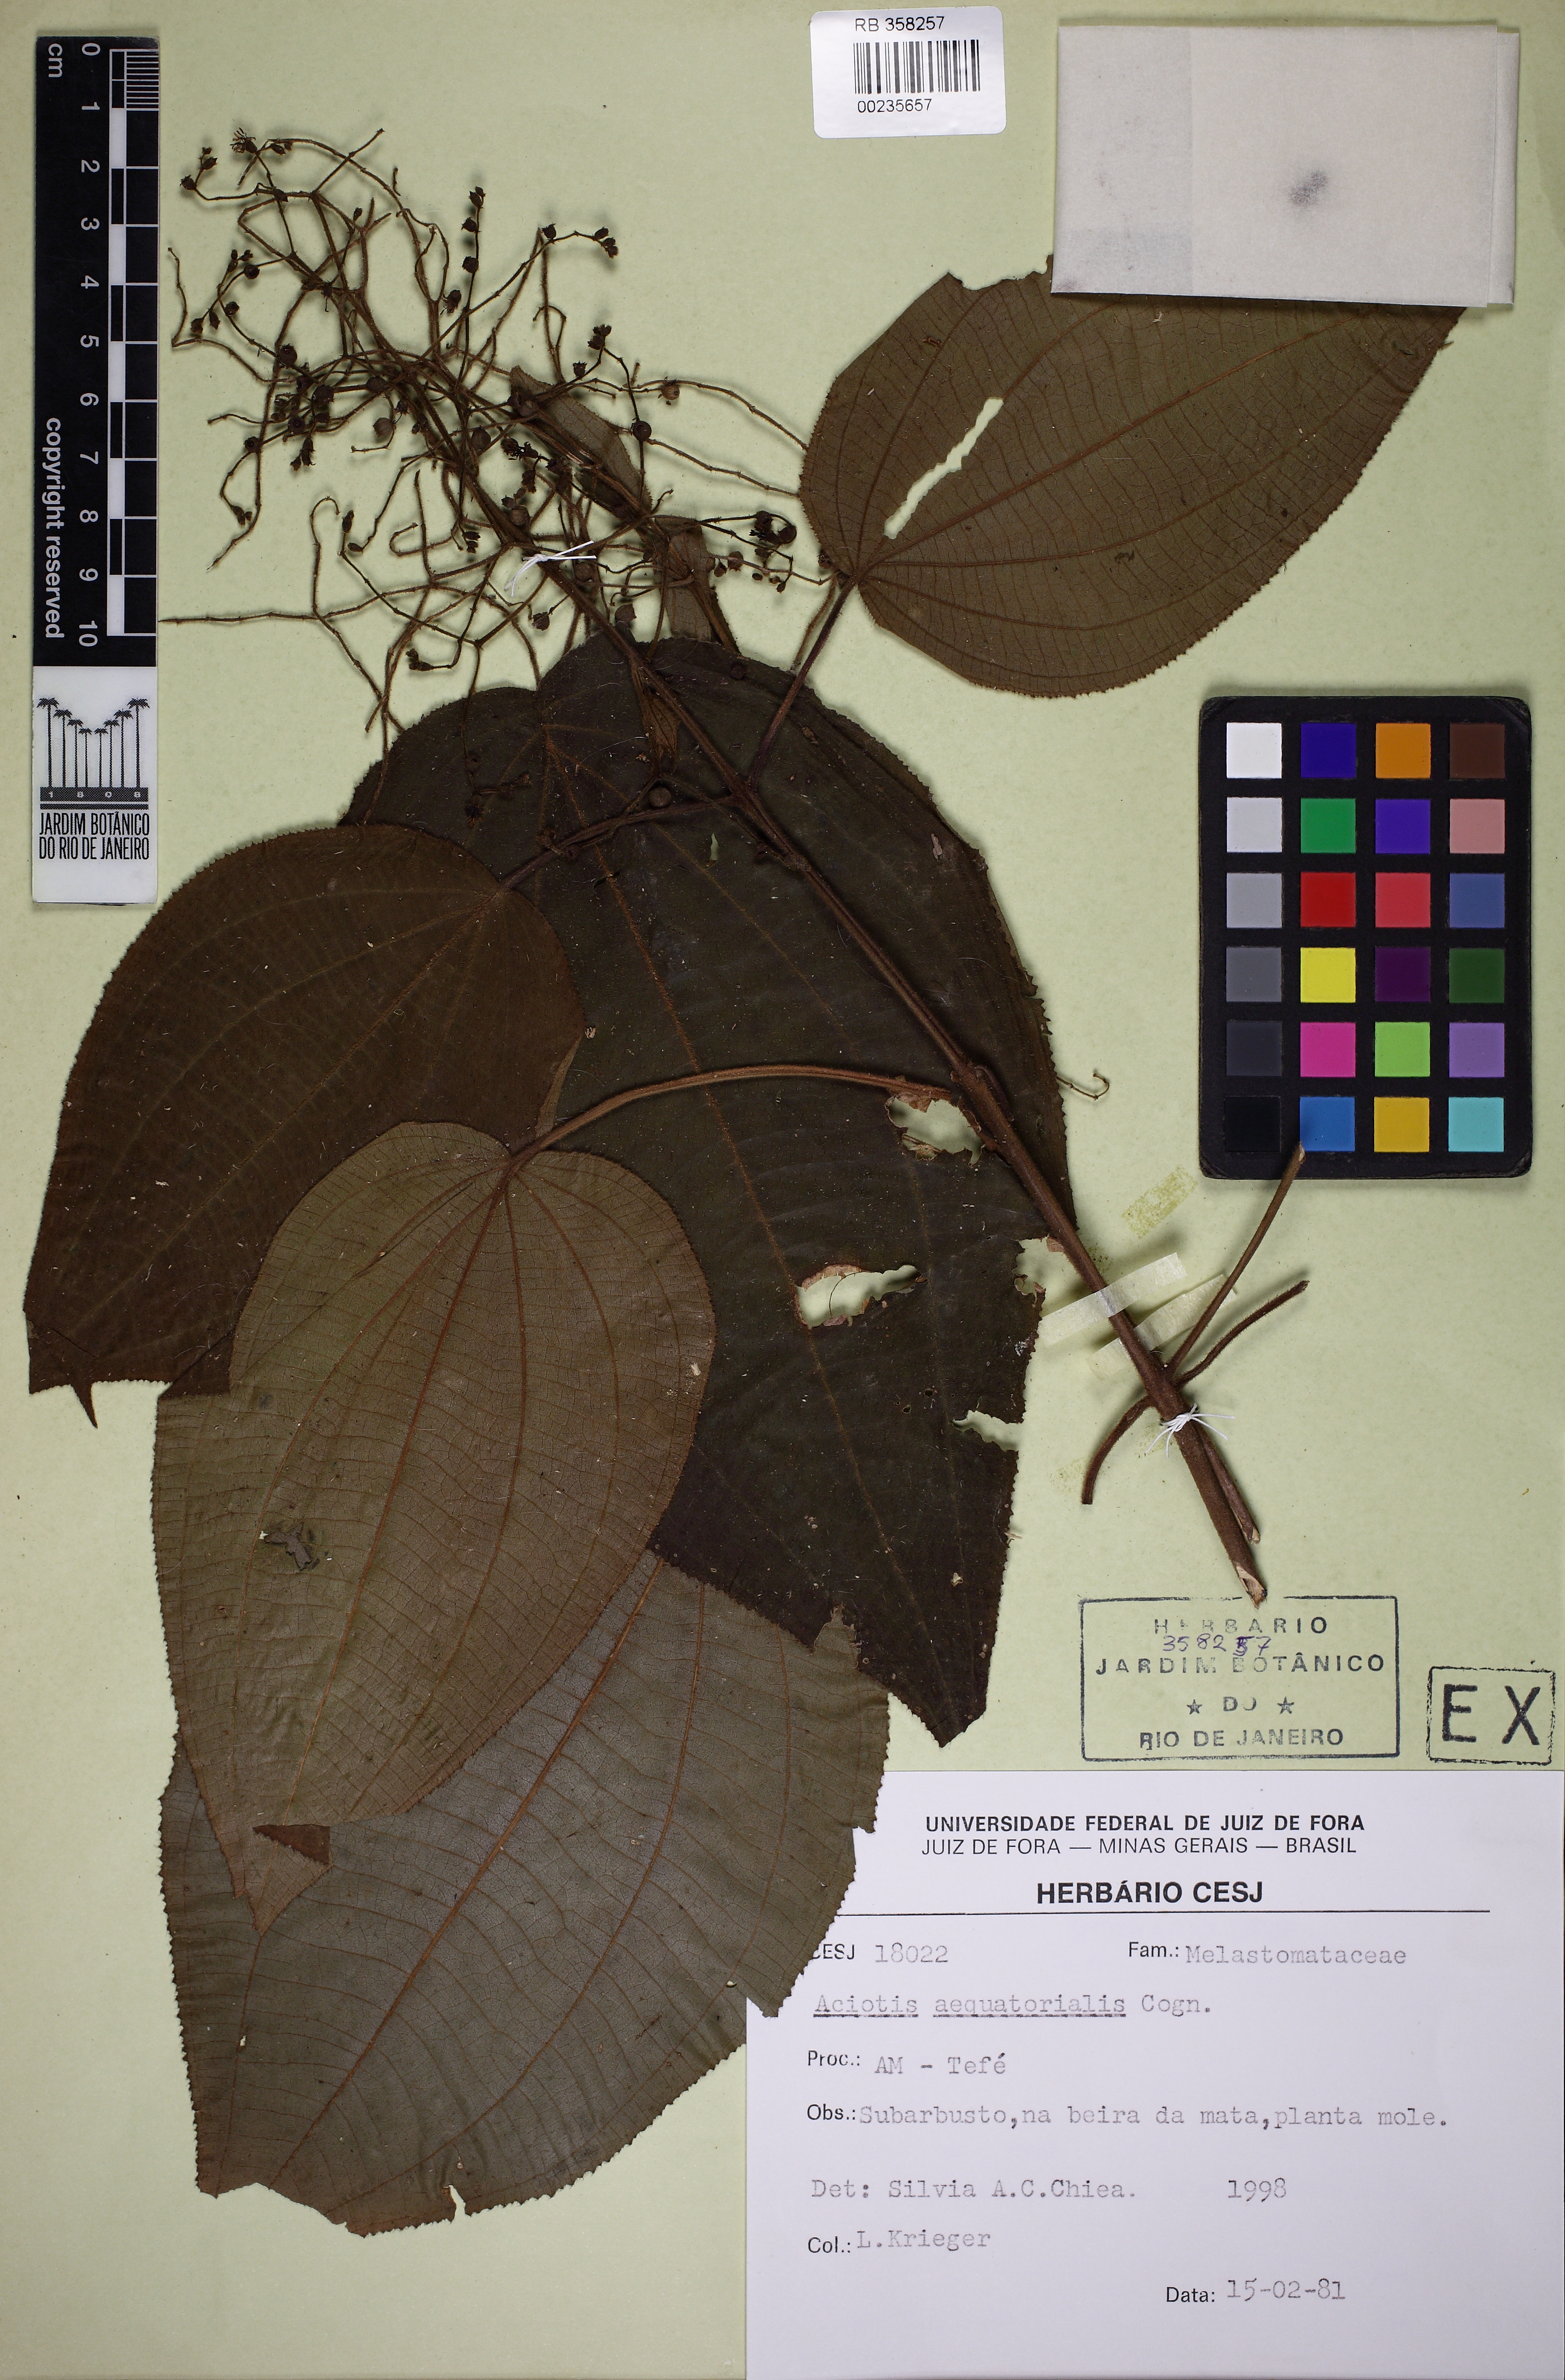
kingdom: Plantae
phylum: Tracheophyta
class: Magnoliopsida
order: Myrtales
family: Melastomataceae
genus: Miconia
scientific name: Miconia solenifera
